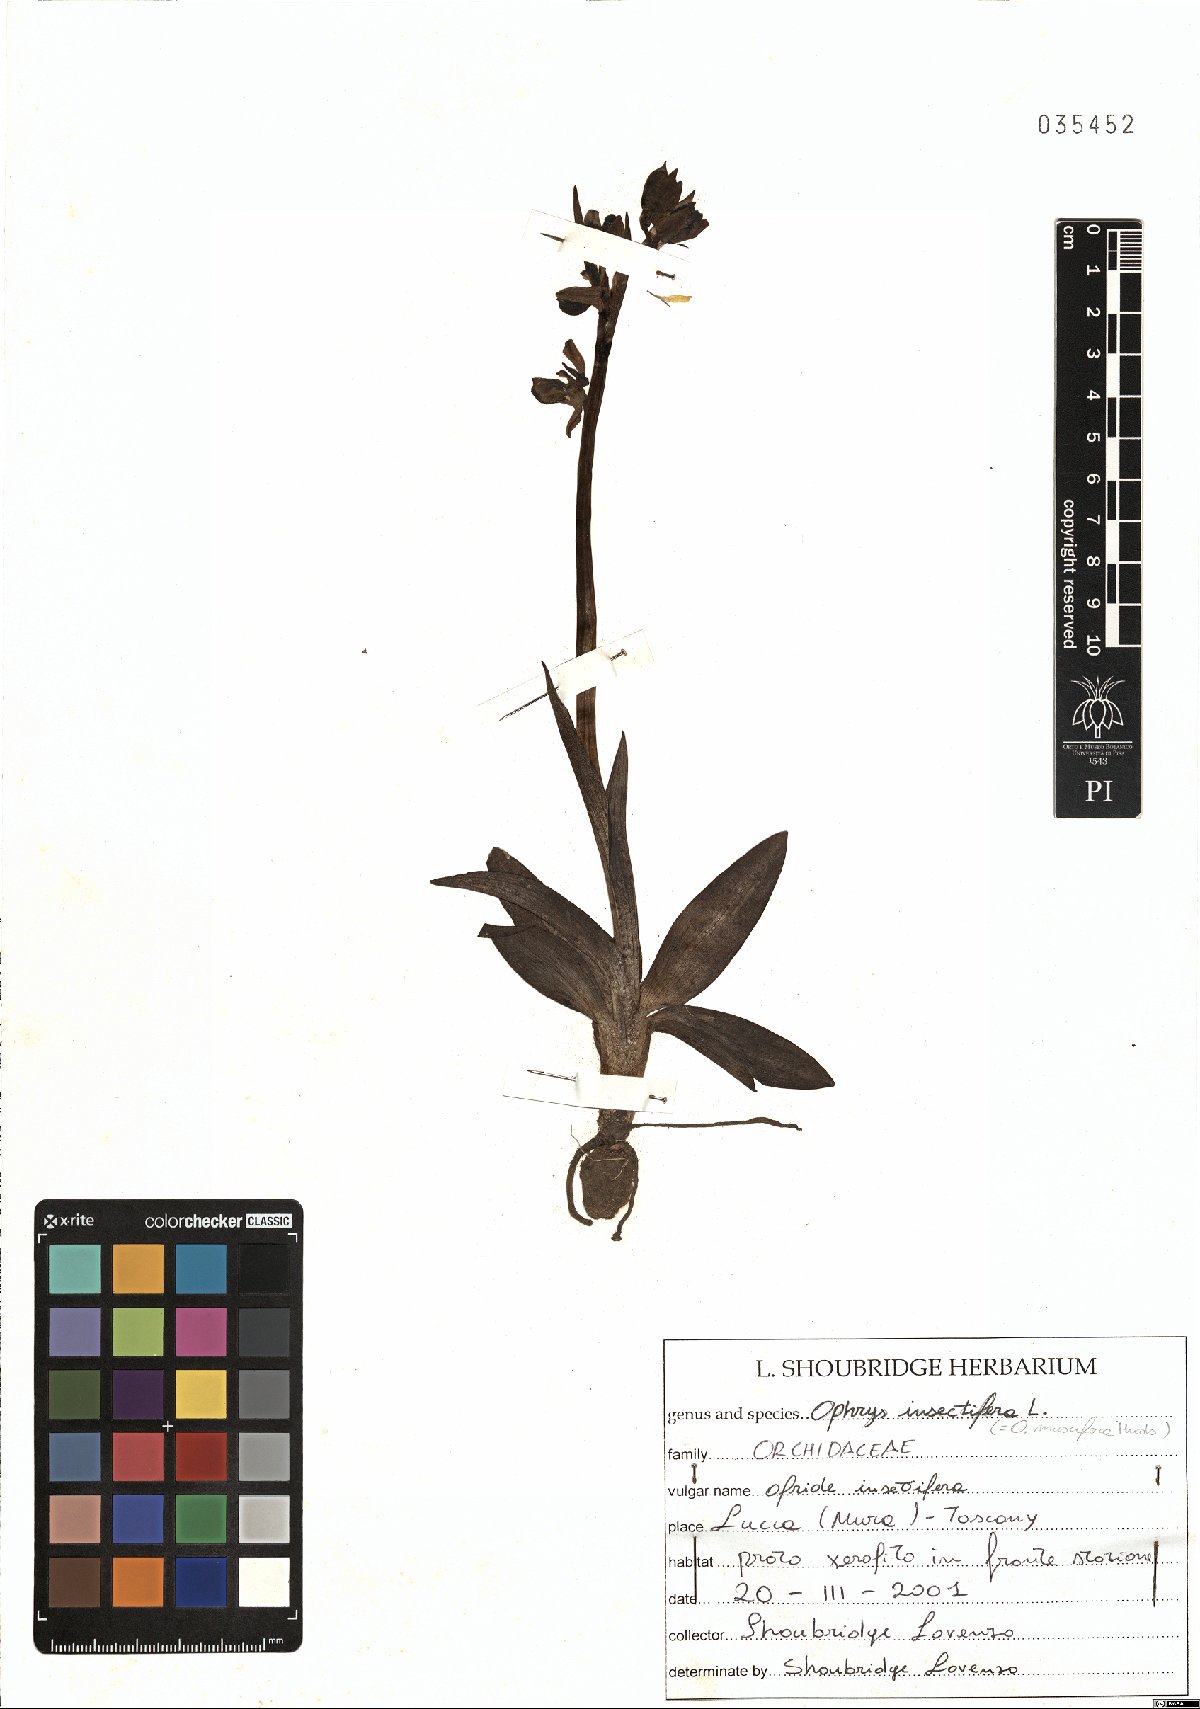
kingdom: Plantae
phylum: Tracheophyta
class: Liliopsida
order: Asparagales
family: Orchidaceae
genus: Ophrys
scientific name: Ophrys insectifera
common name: Fly orchid
